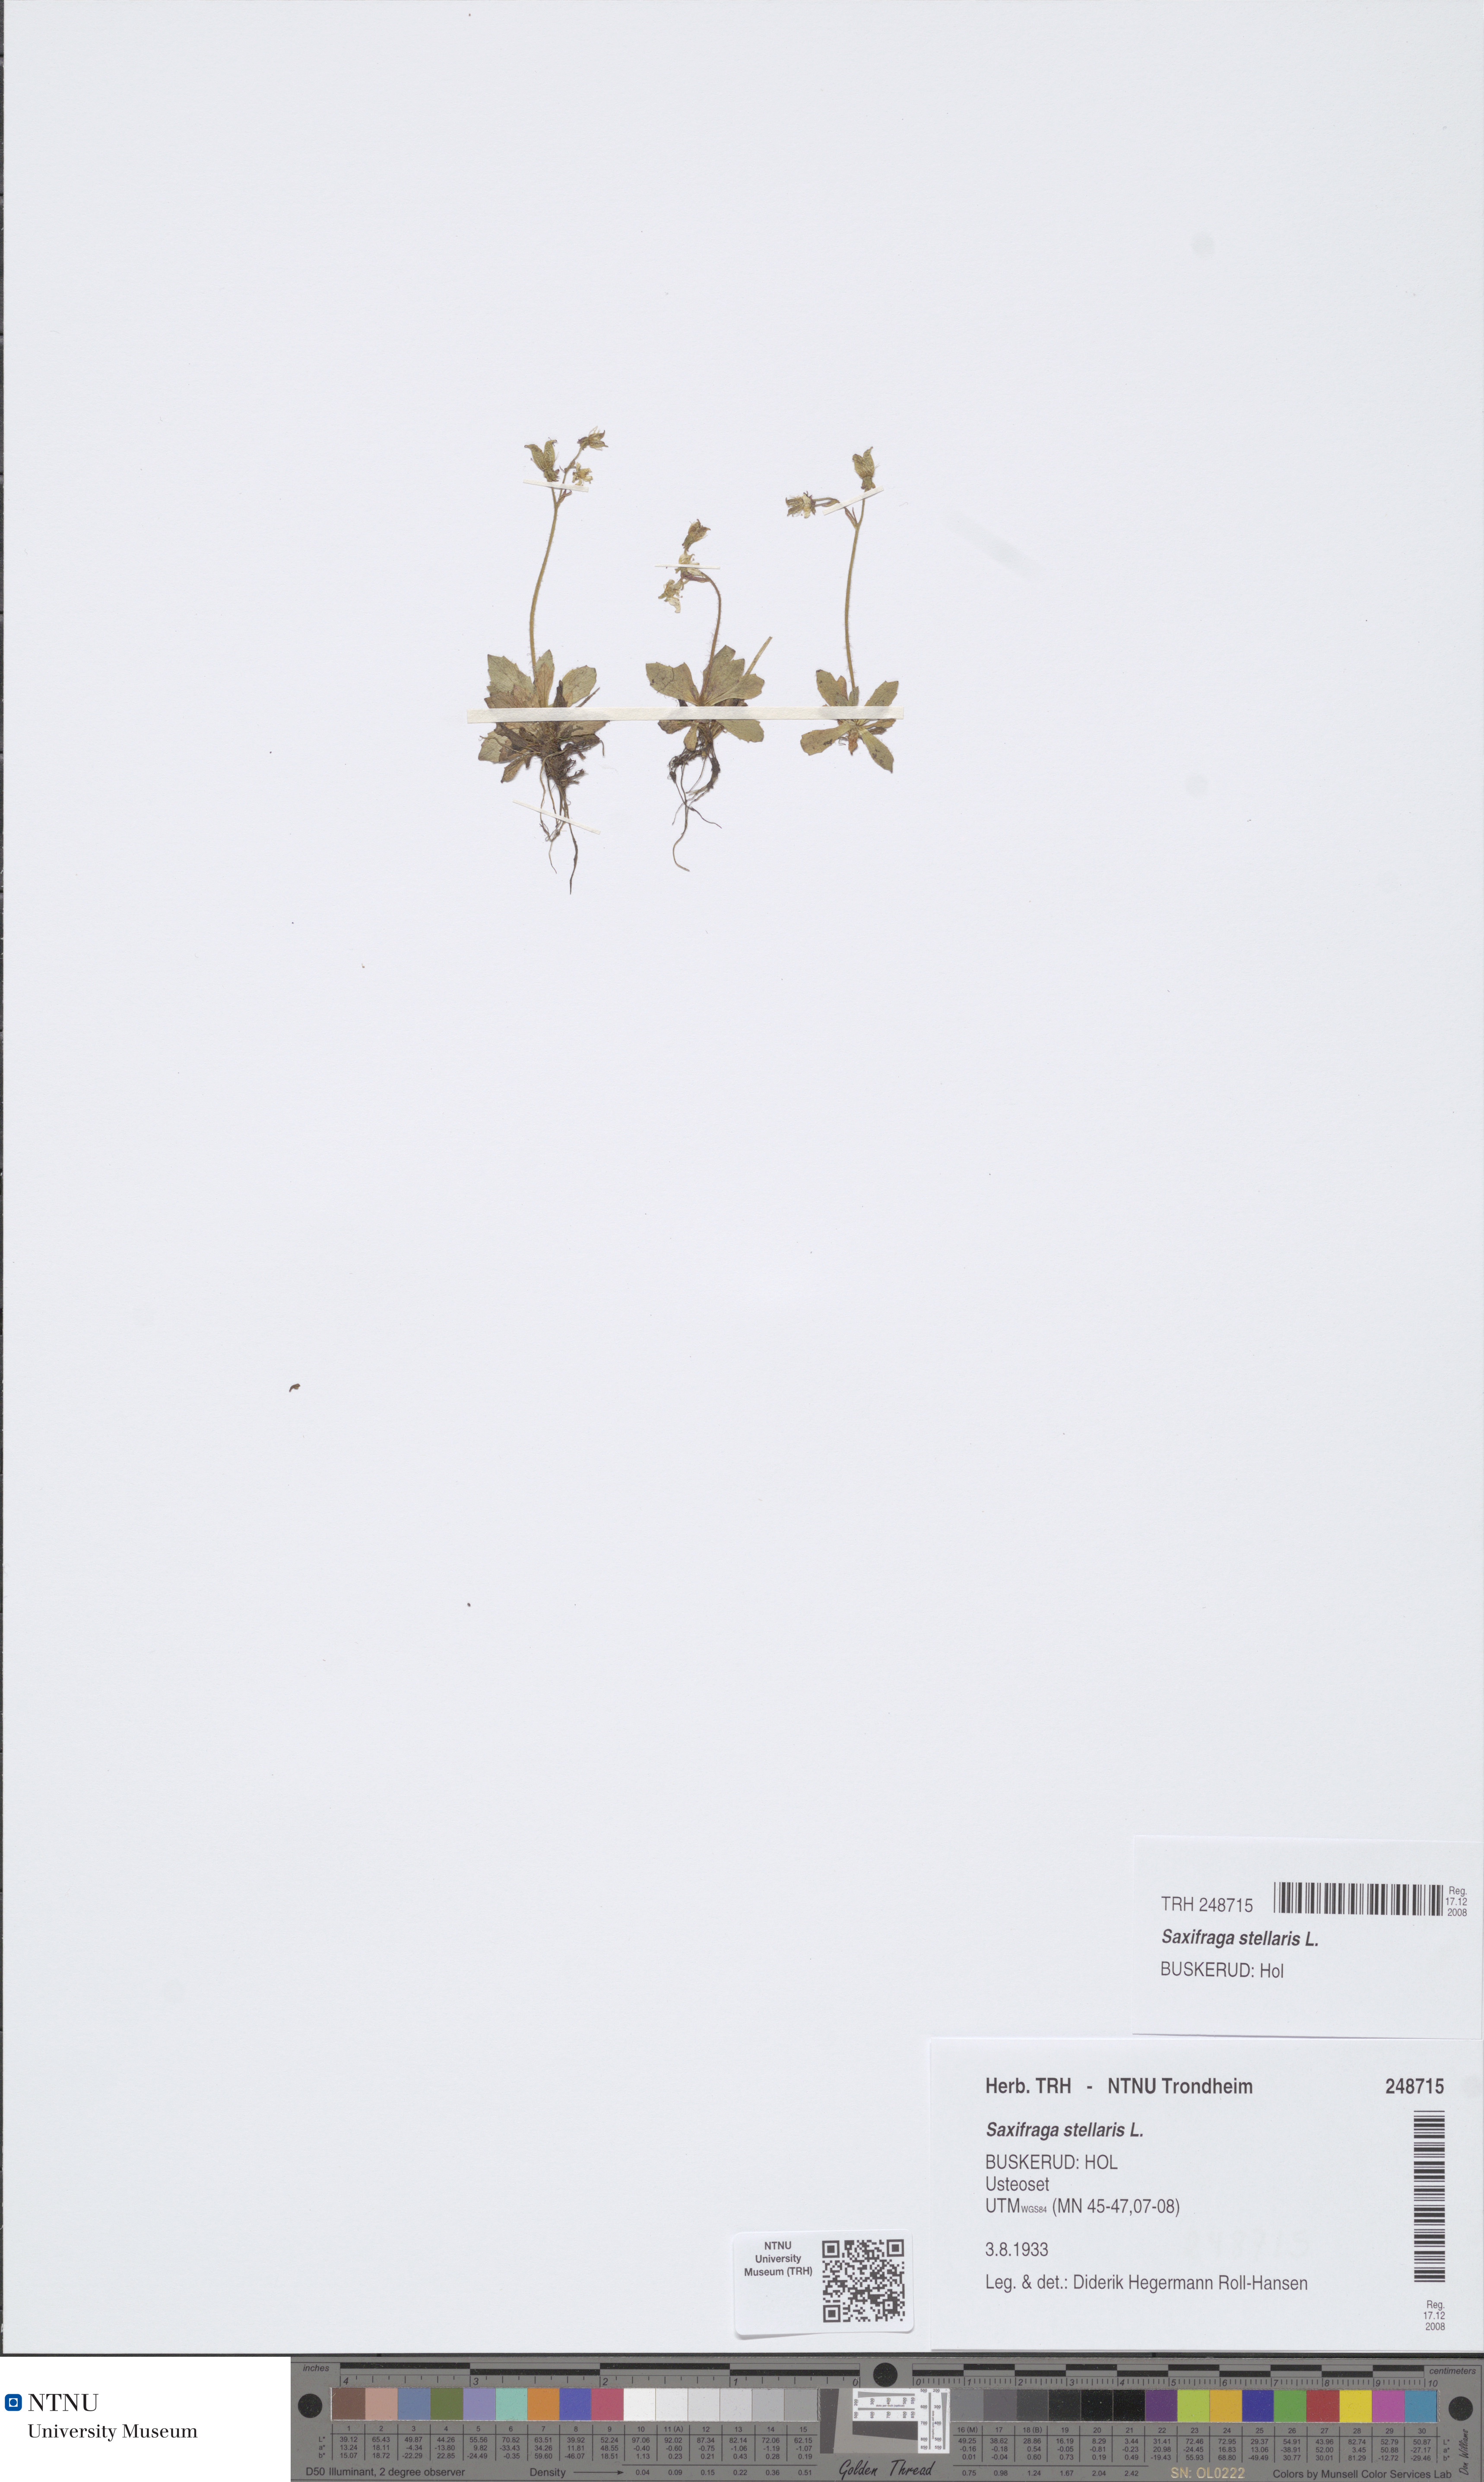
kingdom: Plantae
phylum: Tracheophyta
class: Magnoliopsida
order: Saxifragales
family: Saxifragaceae
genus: Micranthes
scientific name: Micranthes stellaris
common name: Starry saxifrage
